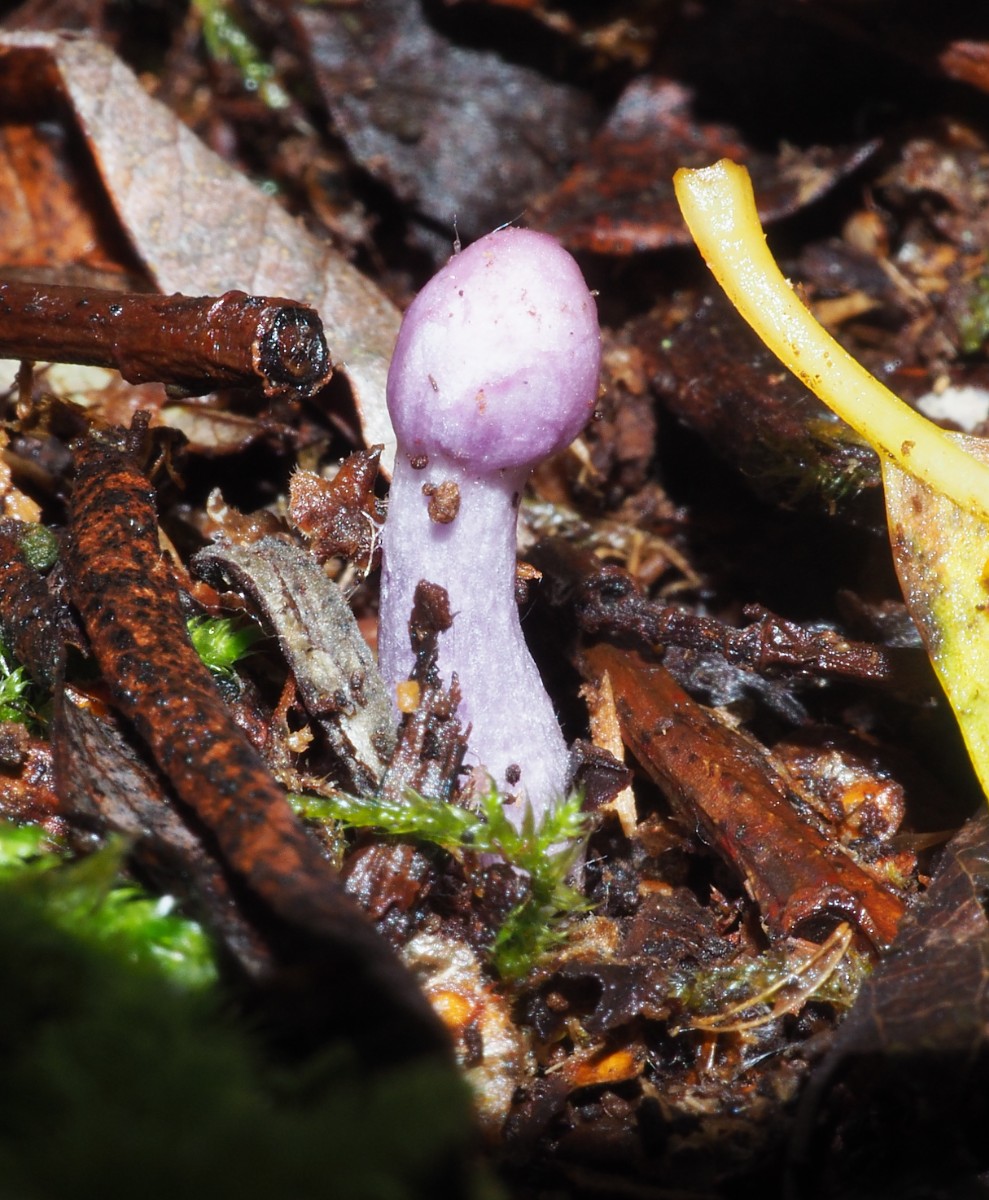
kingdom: Fungi
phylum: Basidiomycota
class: Agaricomycetes
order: Agaricales
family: Inocybaceae
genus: Inocybe
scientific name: Inocybe geophylla
